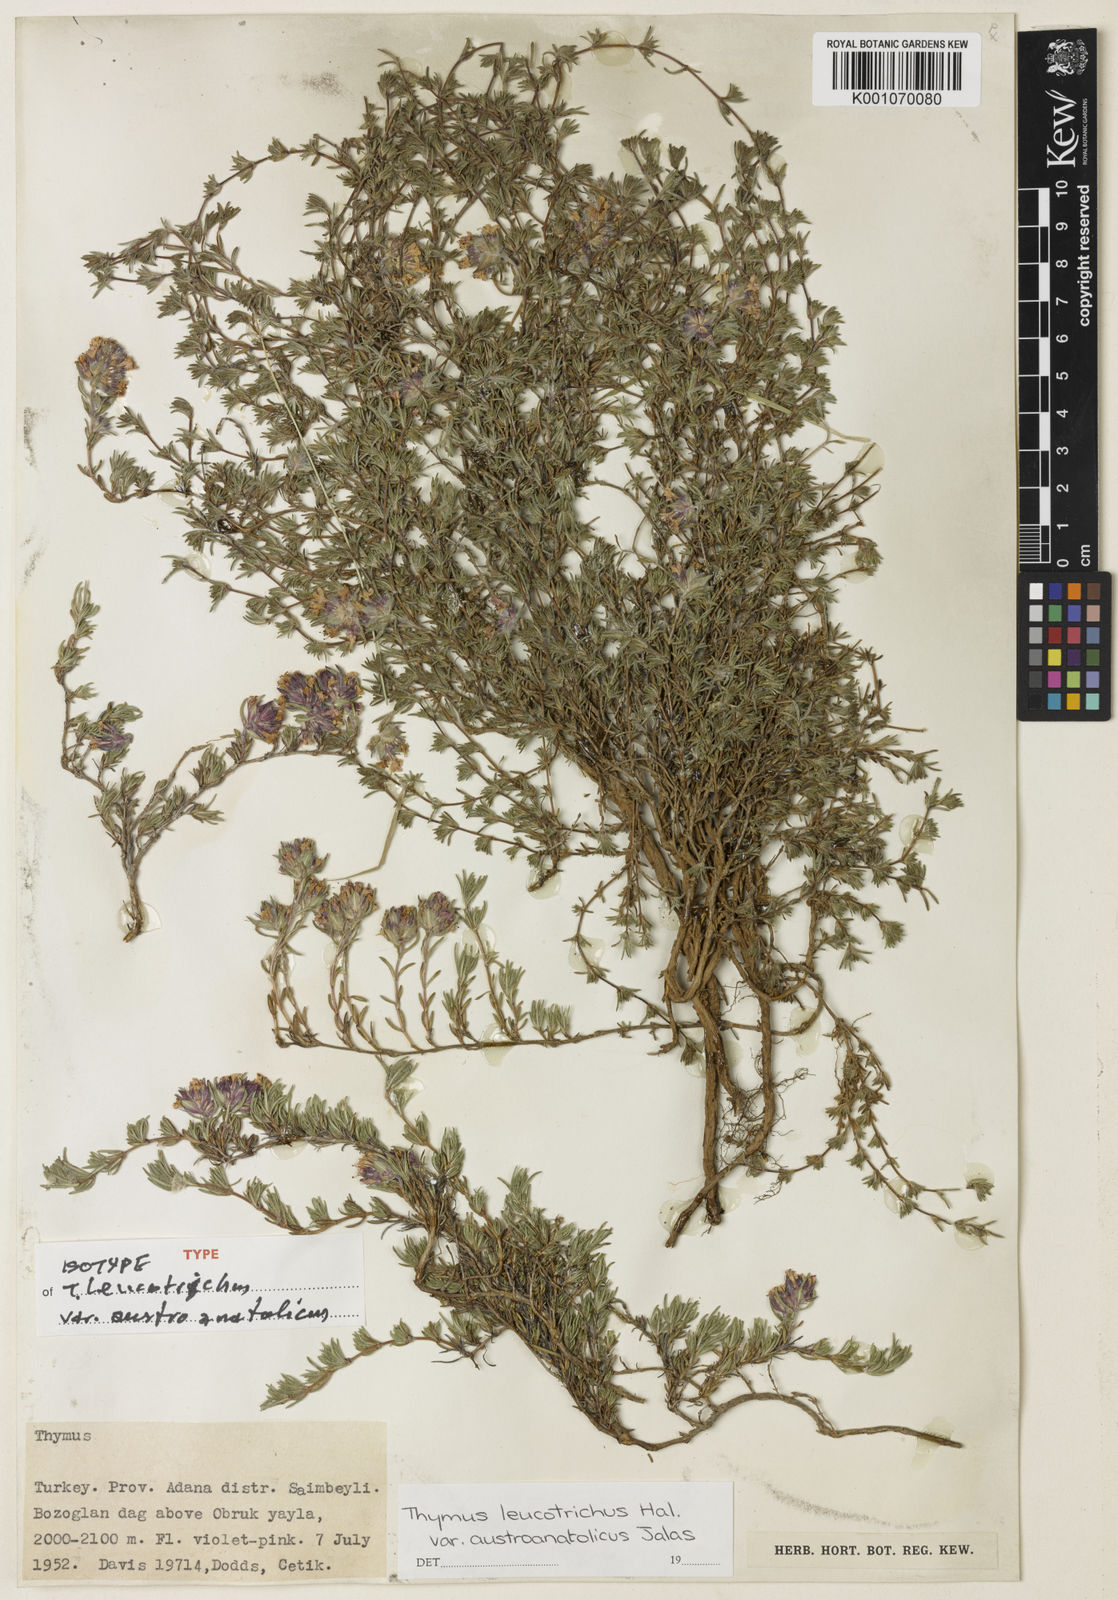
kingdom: Plantae
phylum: Tracheophyta
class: Magnoliopsida
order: Lamiales
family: Lamiaceae
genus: Thymus
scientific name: Thymus leucotrichus
